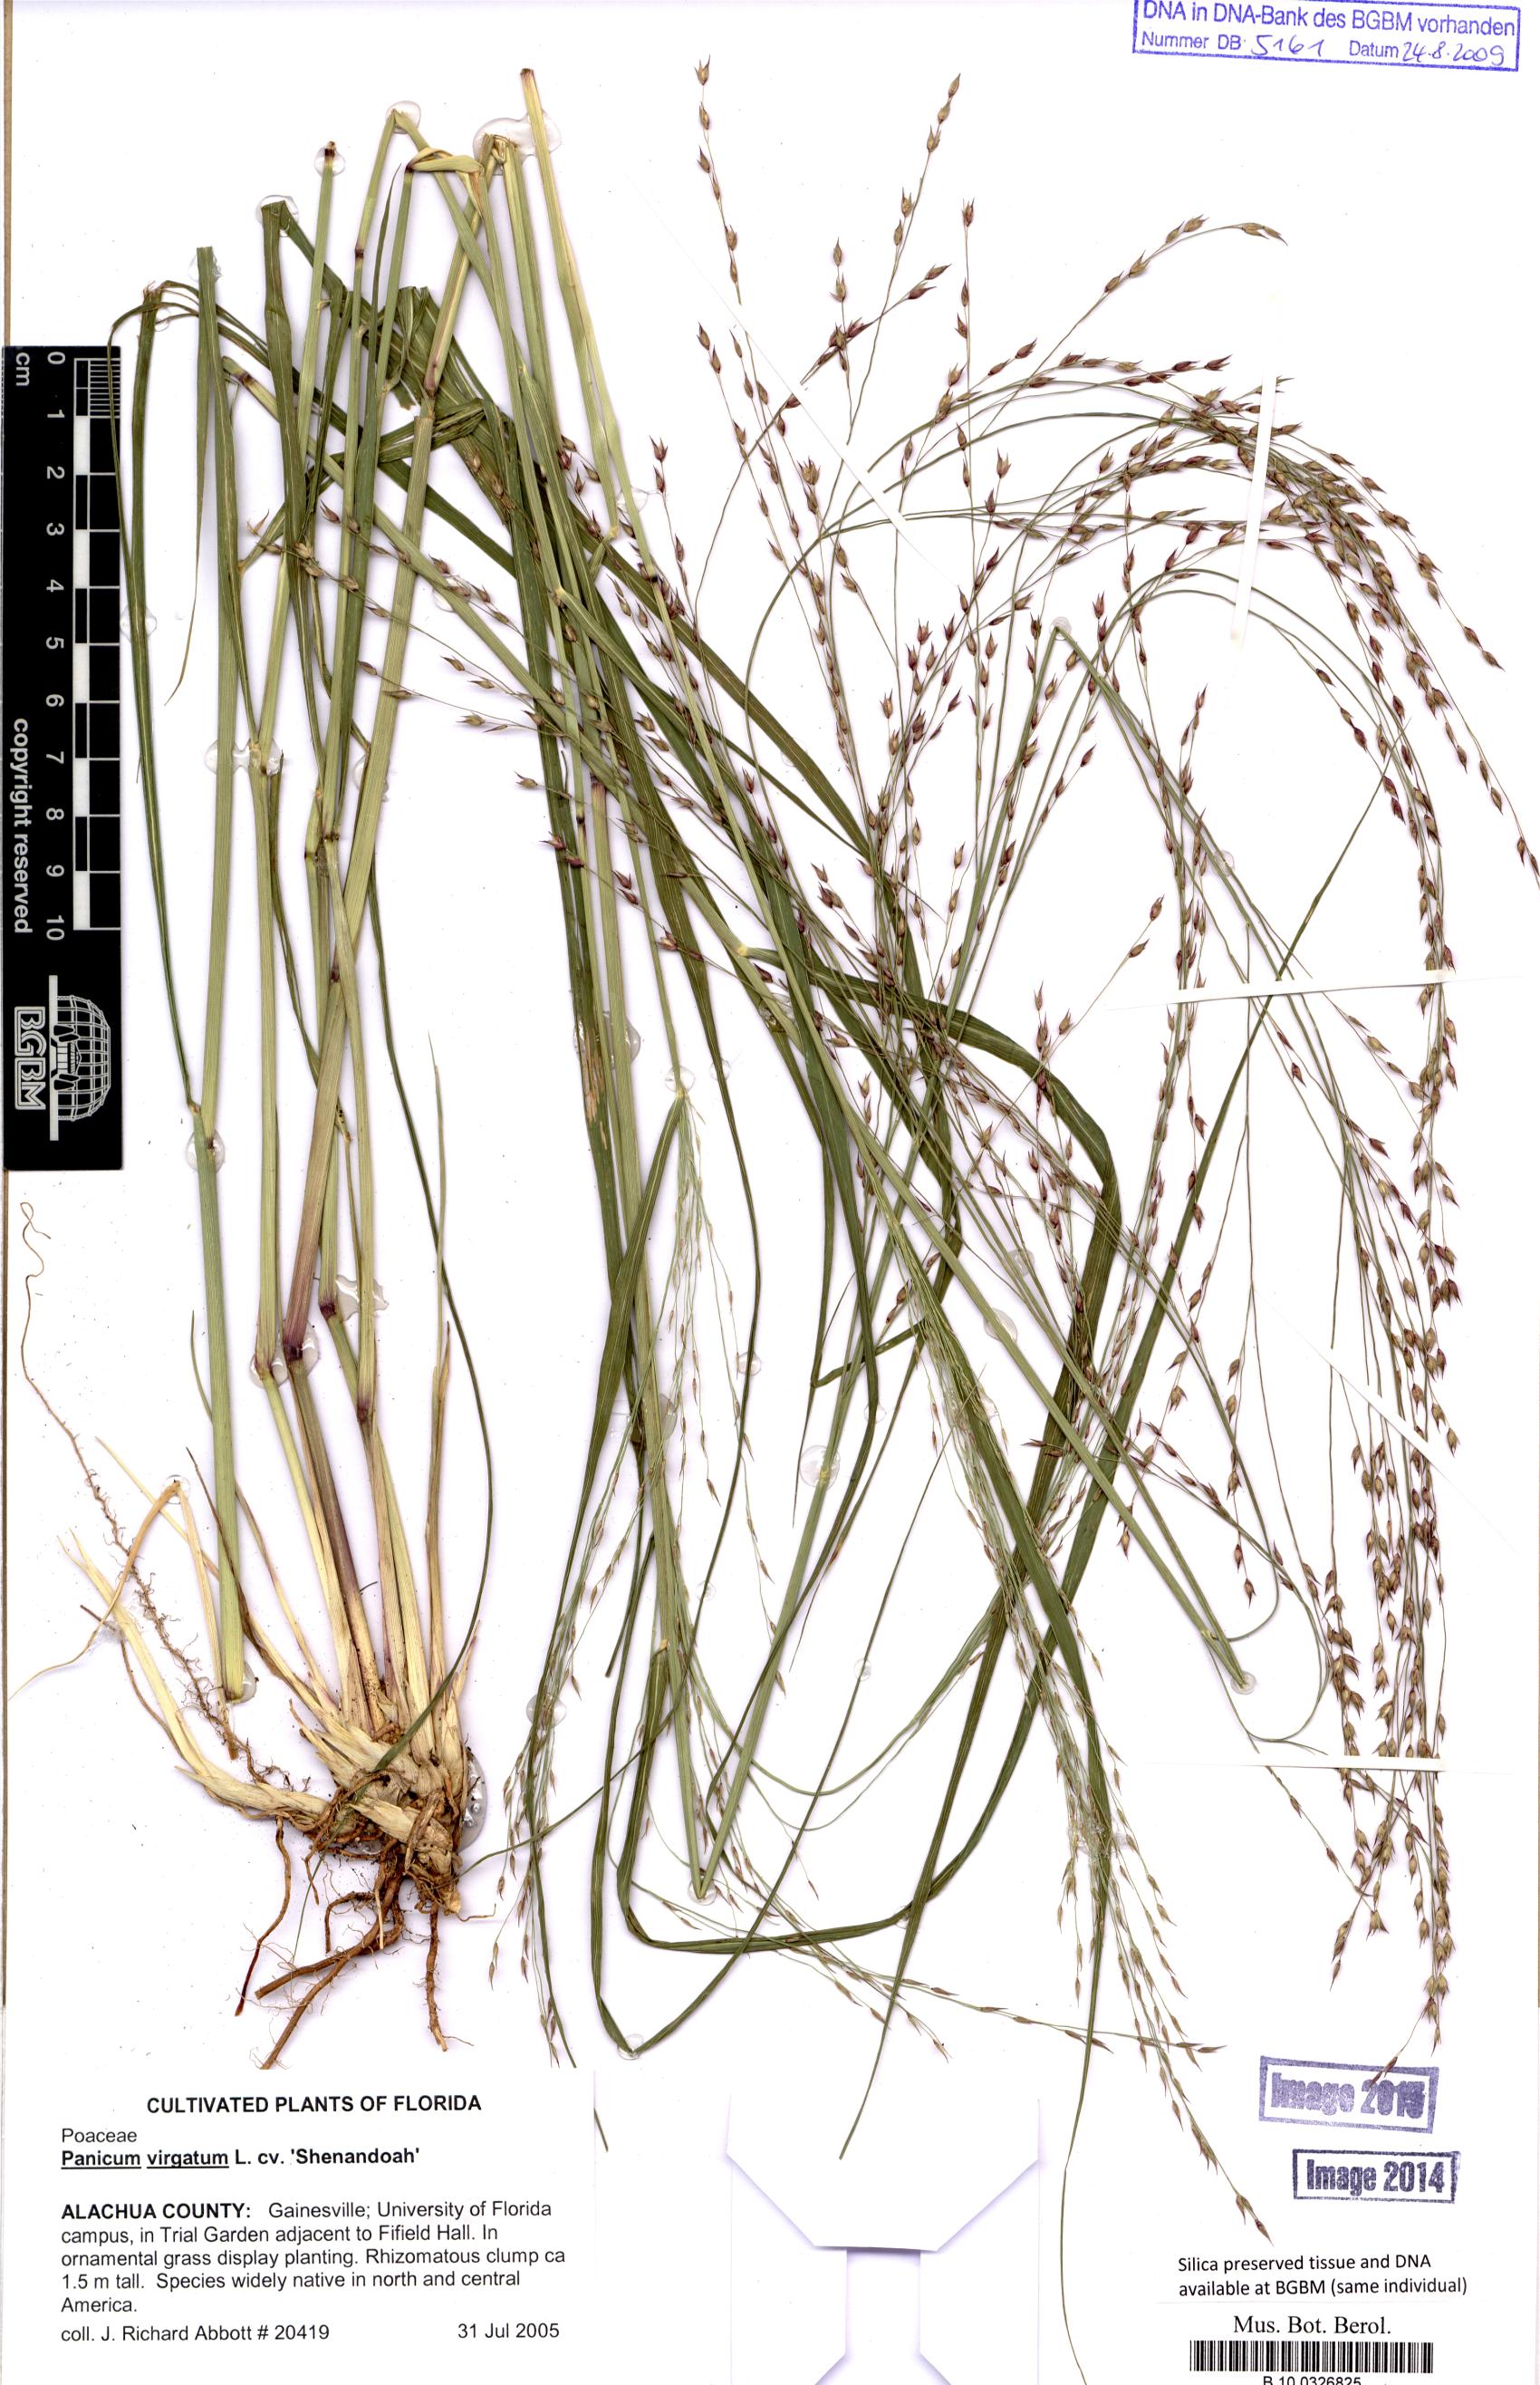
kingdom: Plantae
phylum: Tracheophyta
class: Liliopsida
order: Poales
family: Poaceae
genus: Panicum
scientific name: Panicum virgatum
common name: Switchgrass
